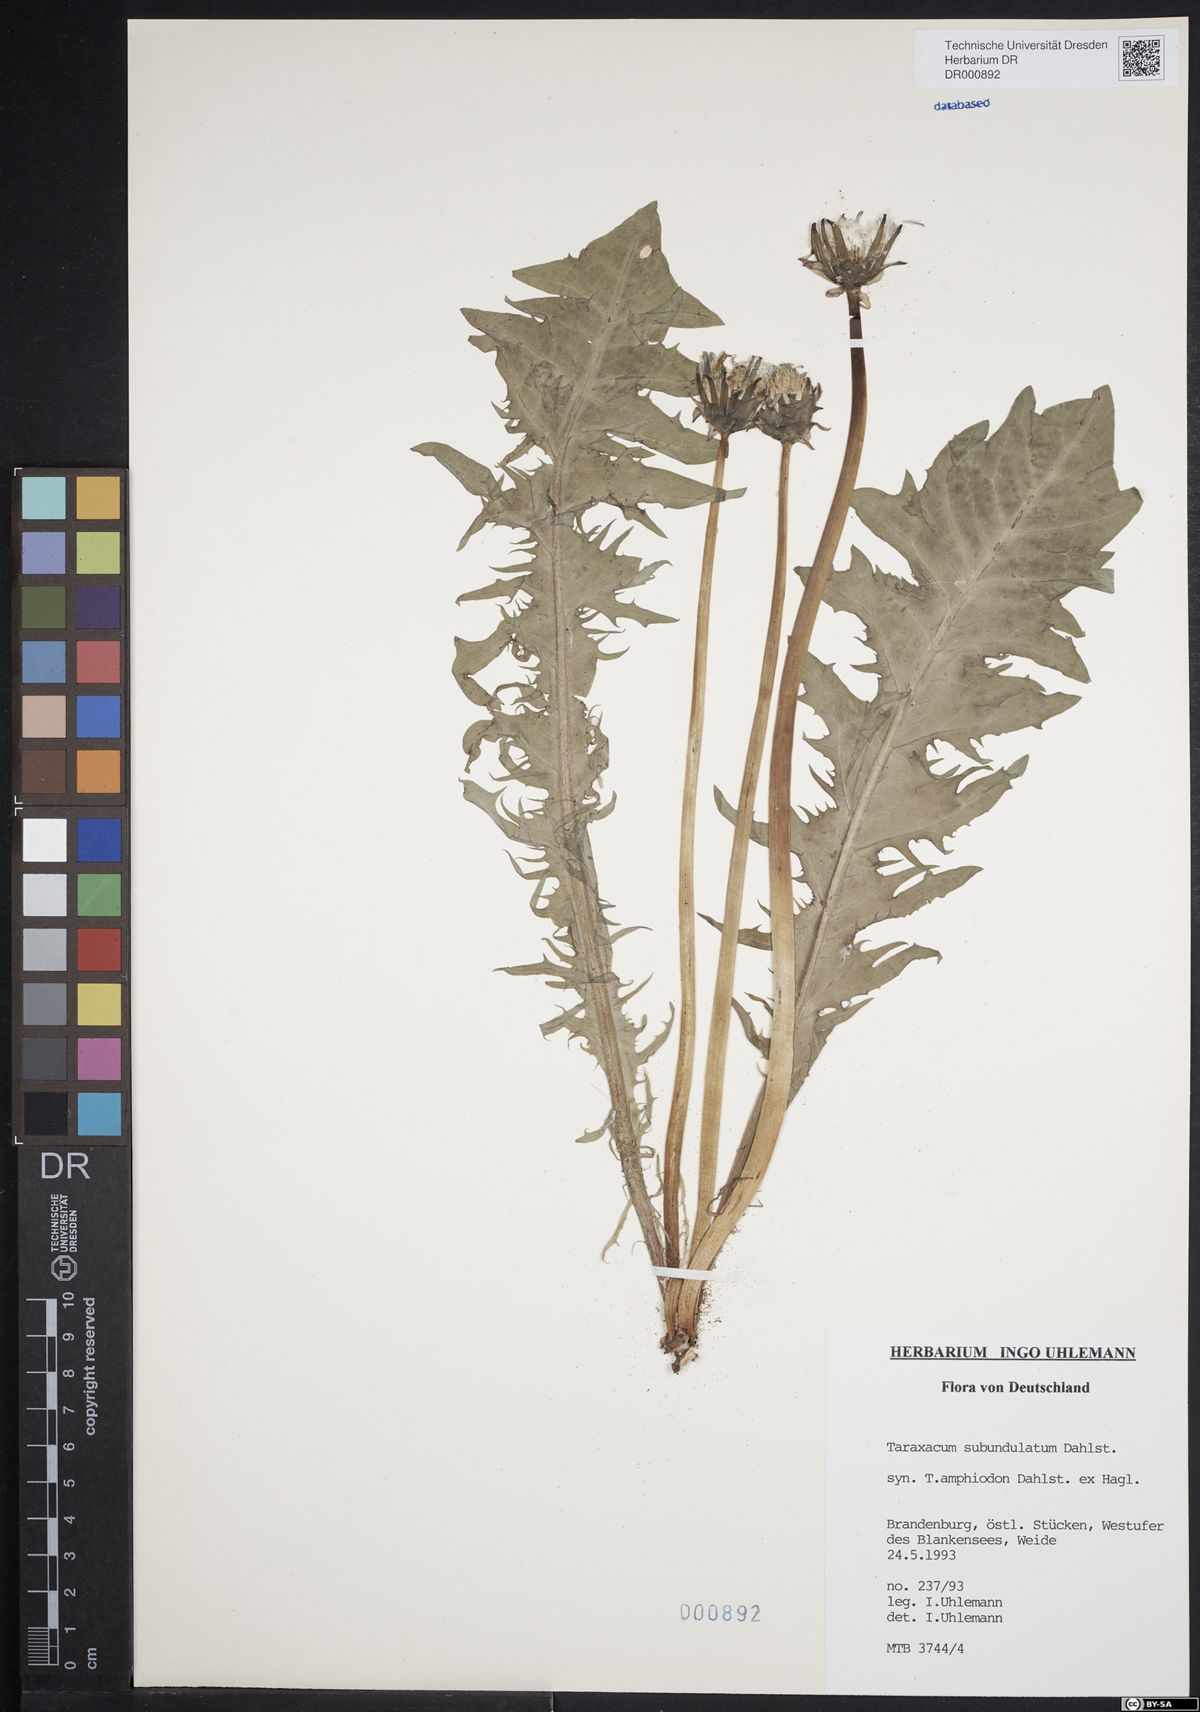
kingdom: Plantae
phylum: Tracheophyta
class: Magnoliopsida
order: Asterales
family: Asteraceae
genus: Taraxacum
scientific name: Taraxacum subundulatum
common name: Complex-leaved dandelion
